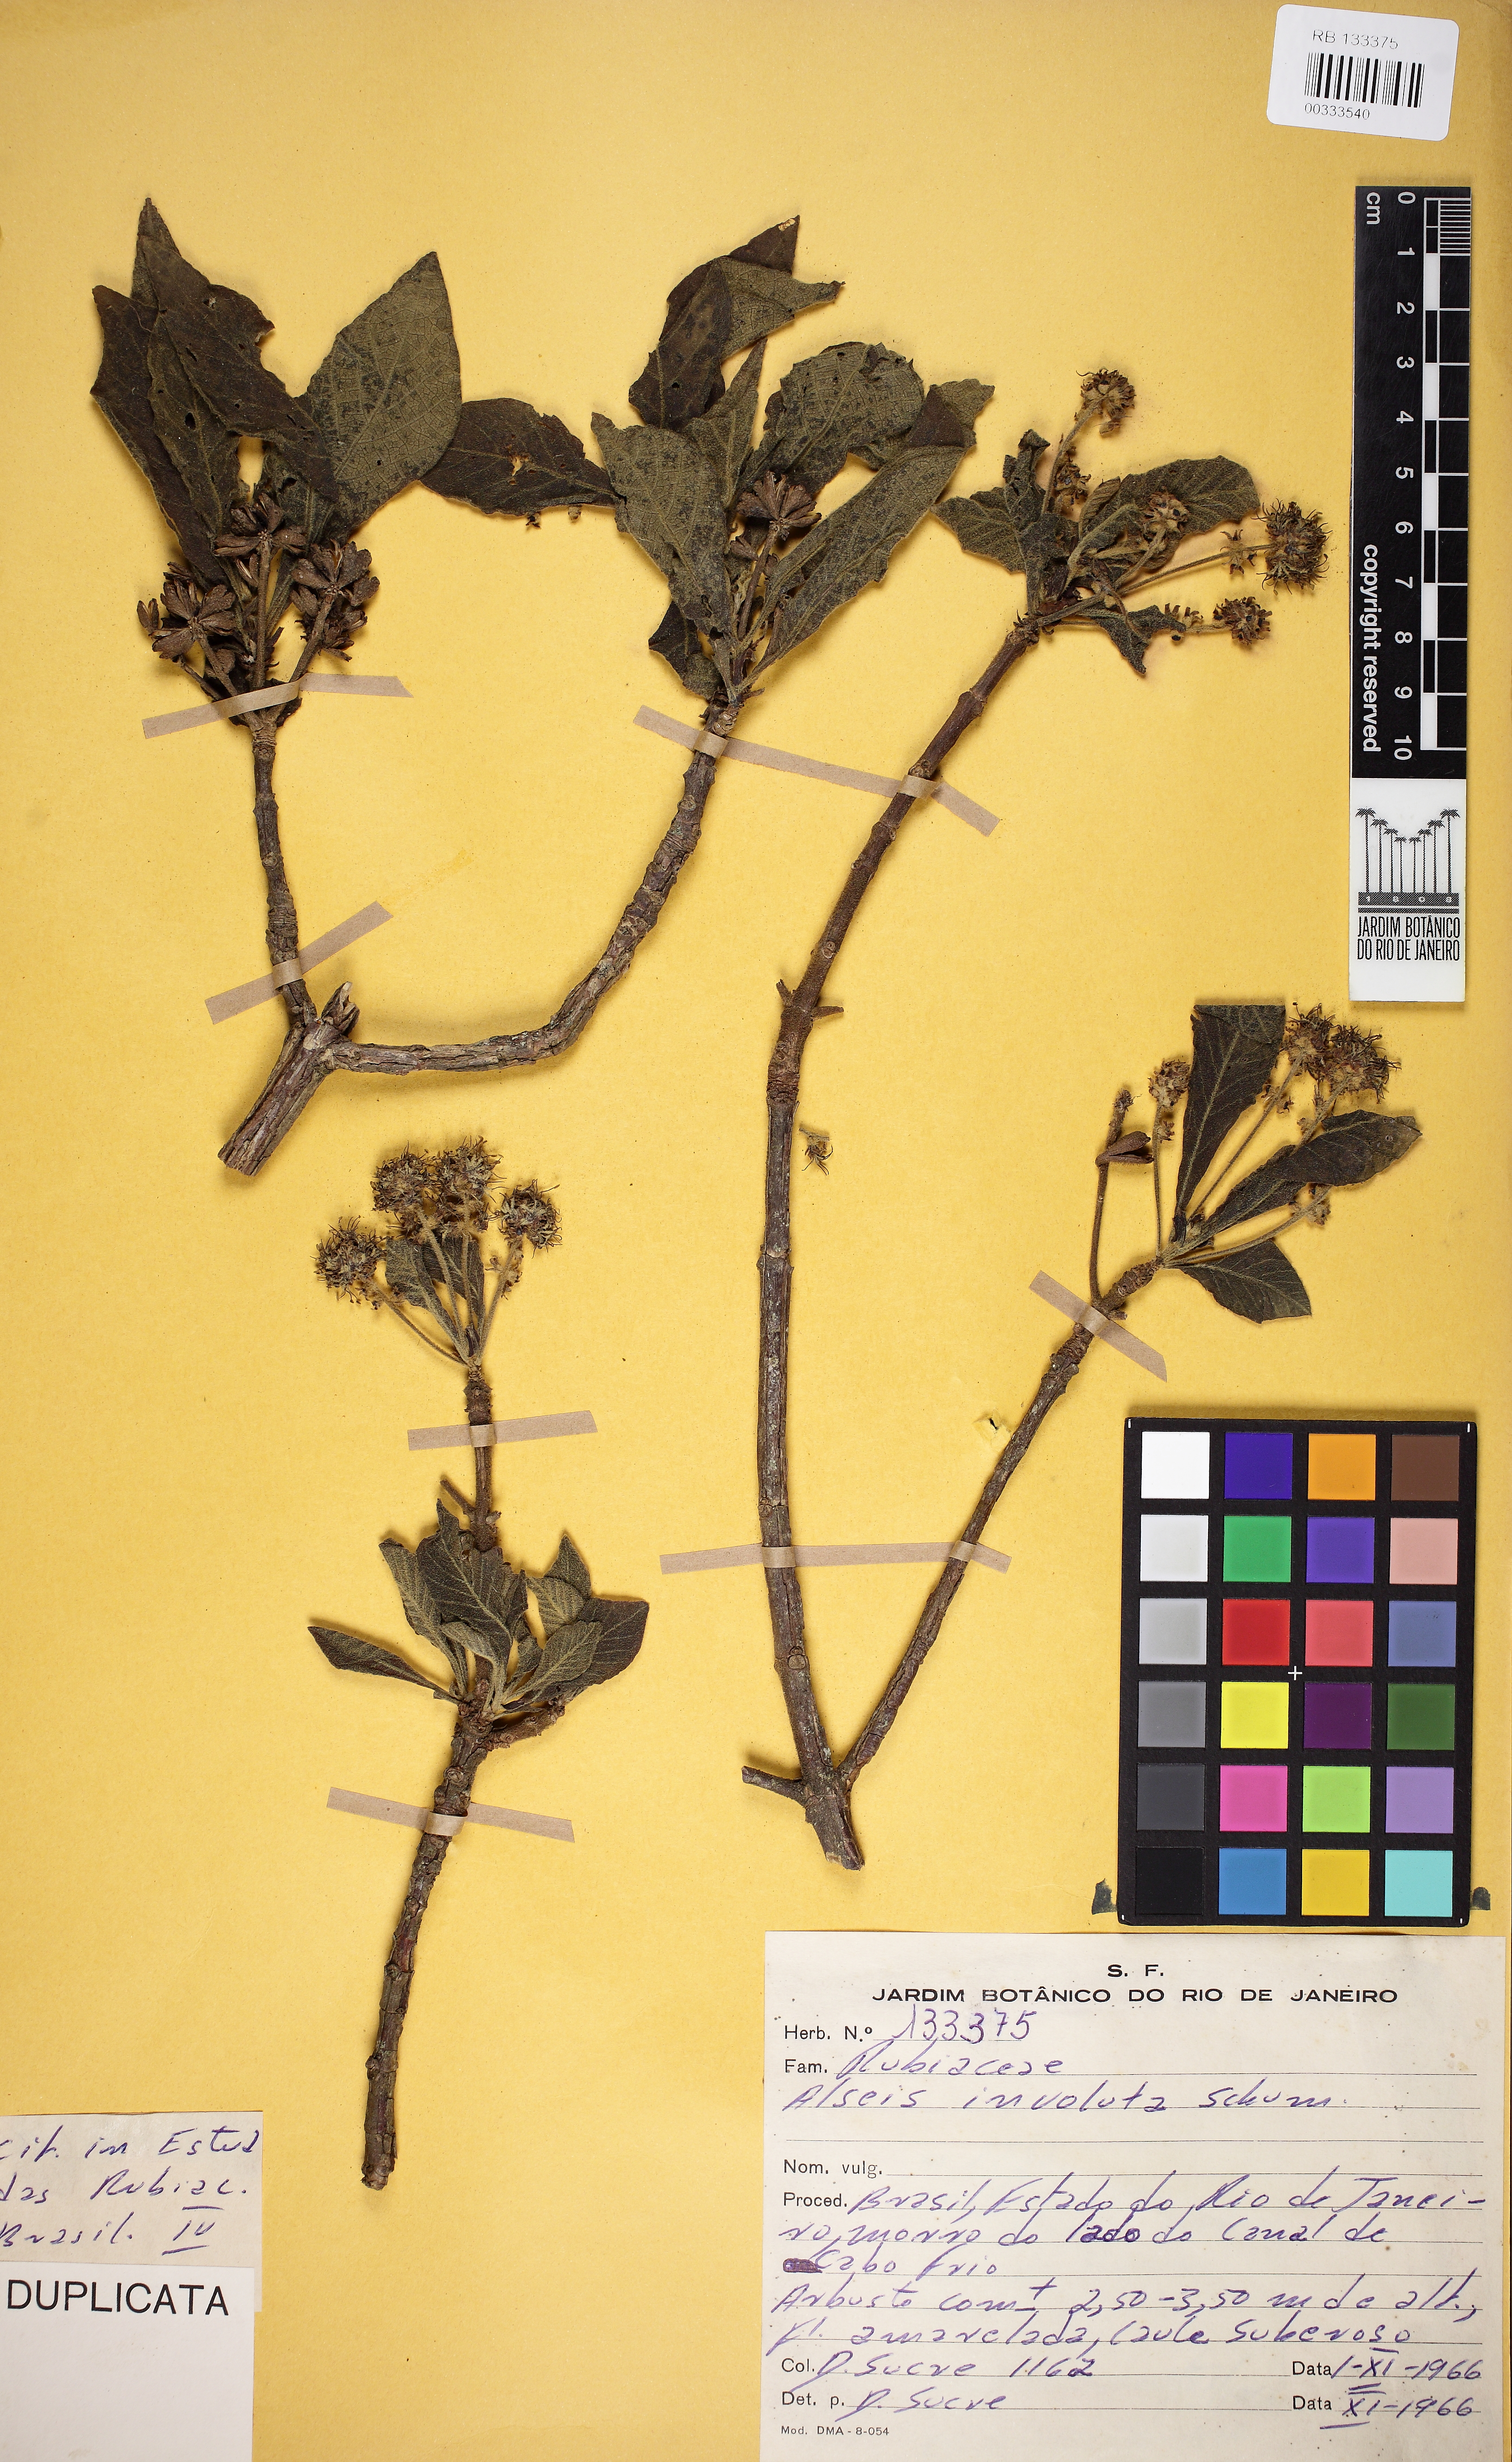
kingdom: Plantae
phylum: Tracheophyta
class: Magnoliopsida
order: Gentianales
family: Rubiaceae
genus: Alseis
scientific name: Alseis involuta
